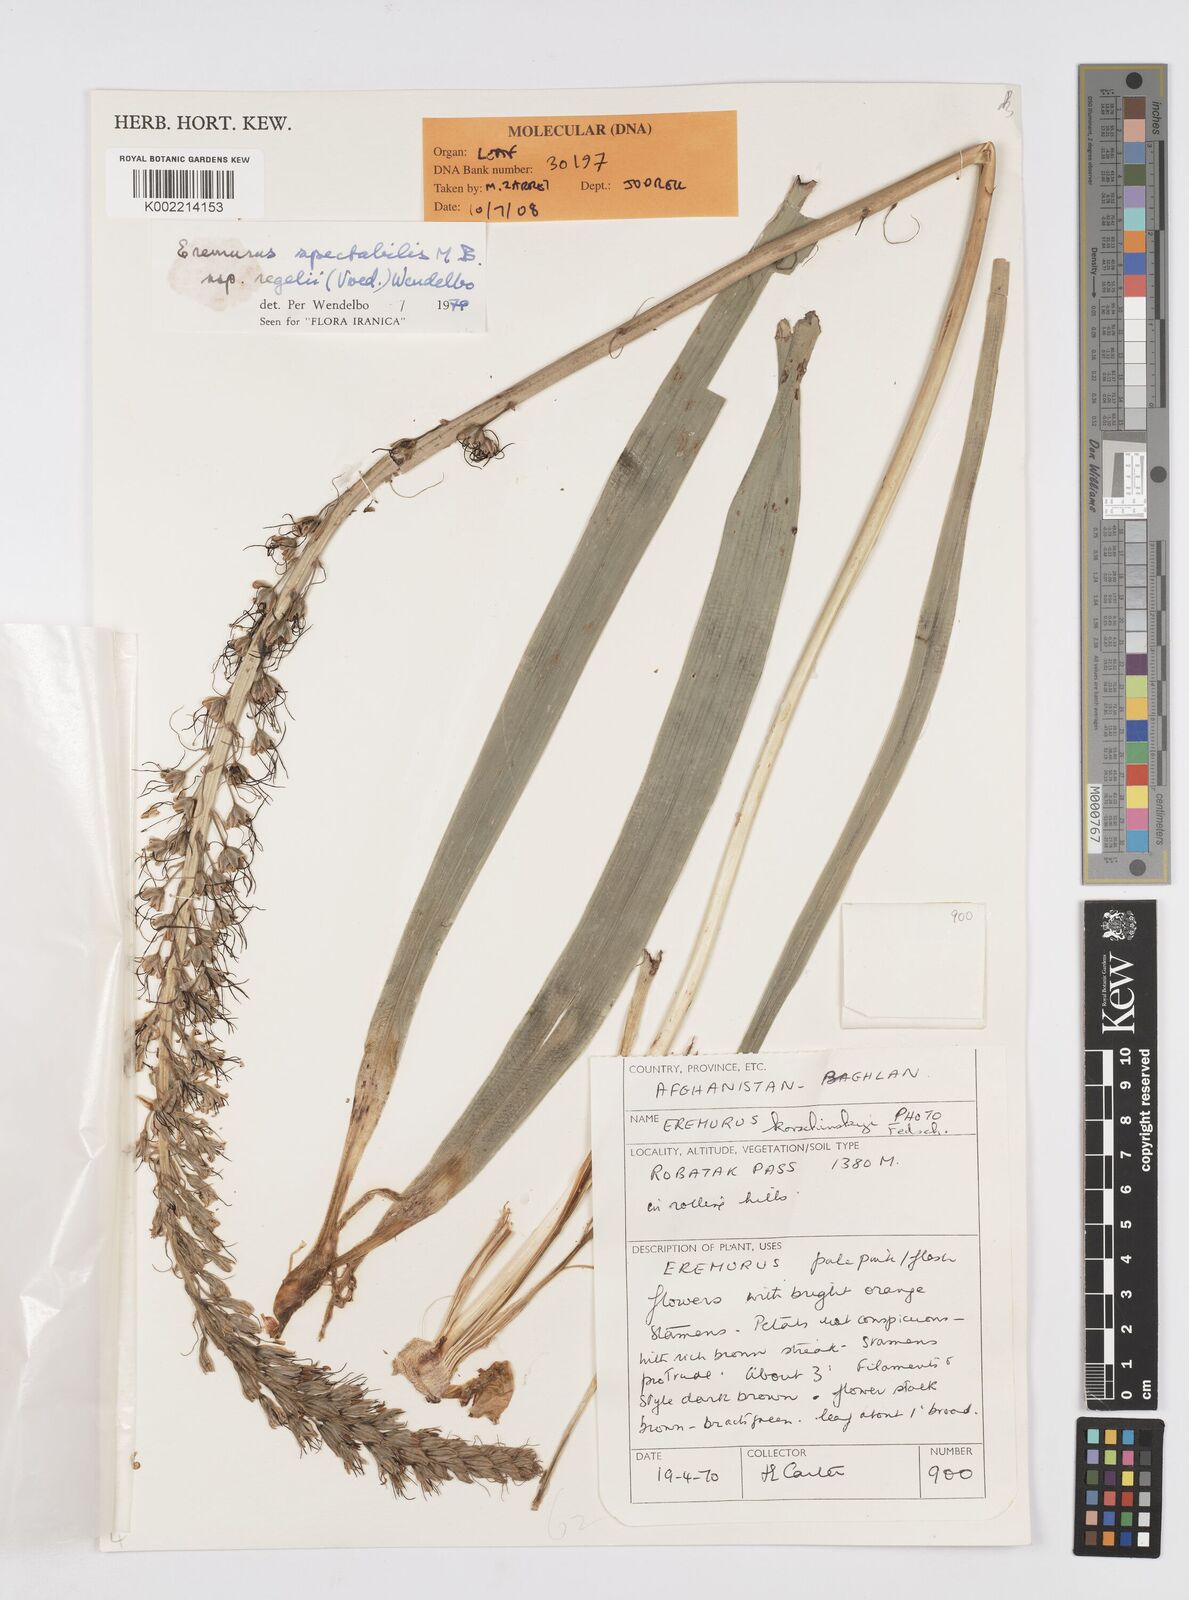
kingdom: Plantae
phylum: Tracheophyta
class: Liliopsida
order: Asparagales
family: Asphodelaceae
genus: Eremurus
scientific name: Eremurus spectabilis
